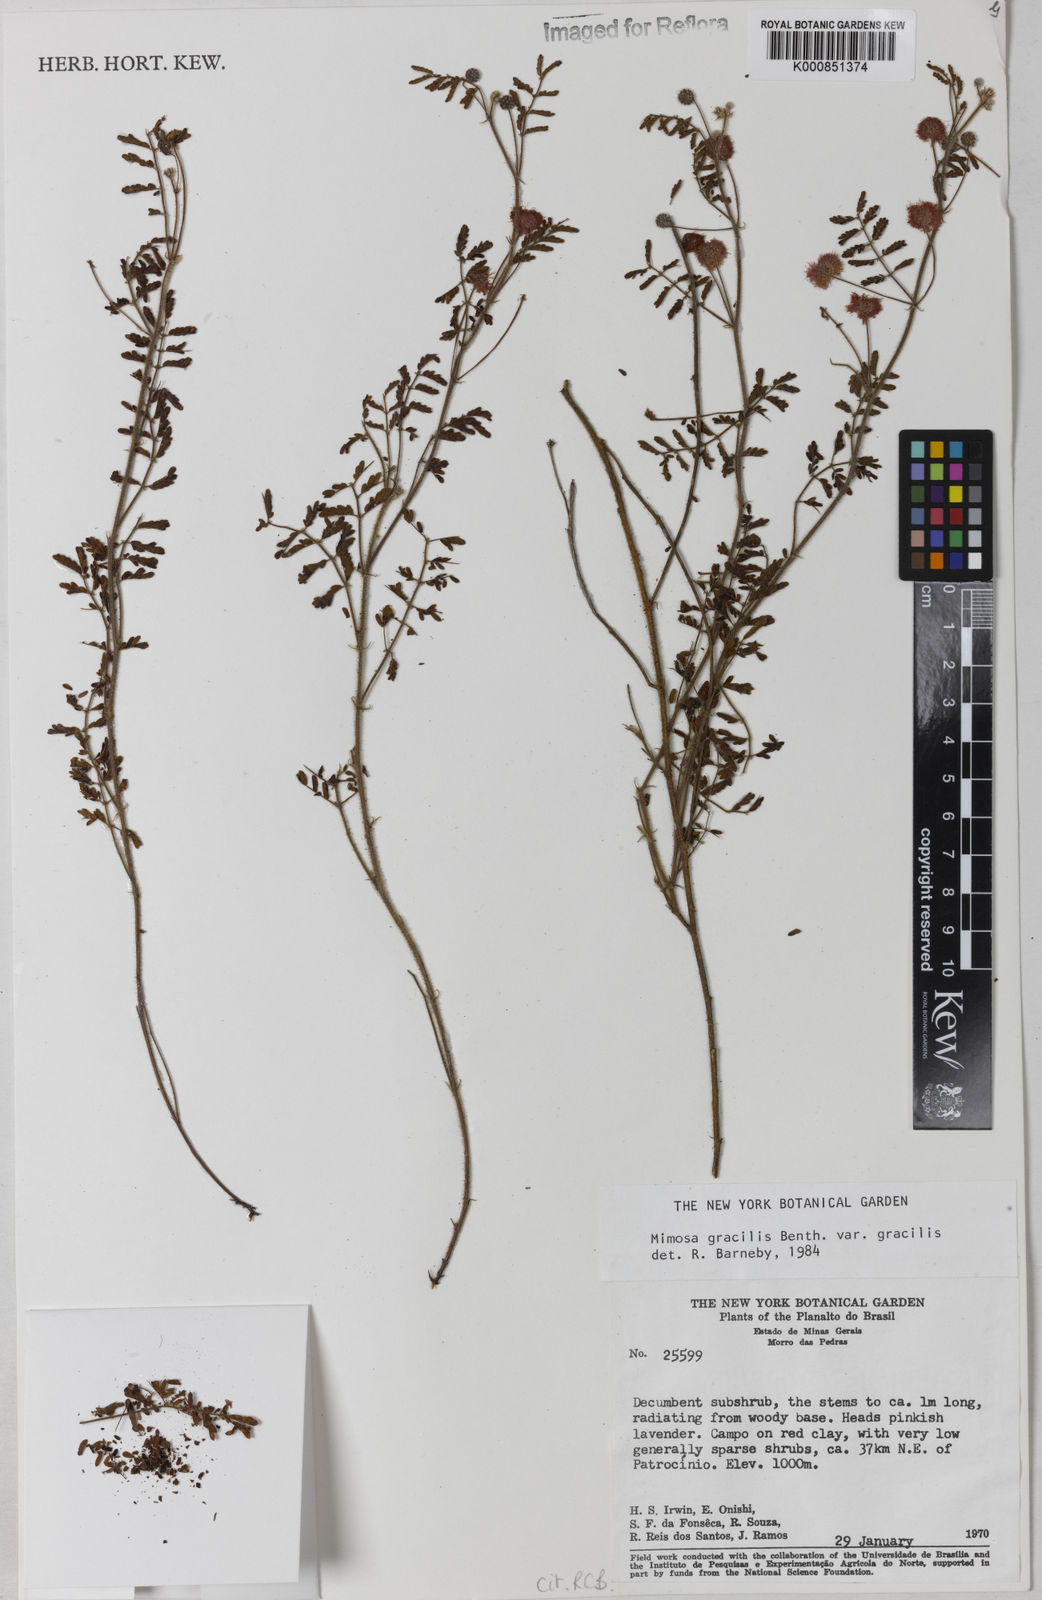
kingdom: Plantae
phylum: Tracheophyta
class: Magnoliopsida
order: Fabales
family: Fabaceae
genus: Mimosa
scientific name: Mimosa gracilis
